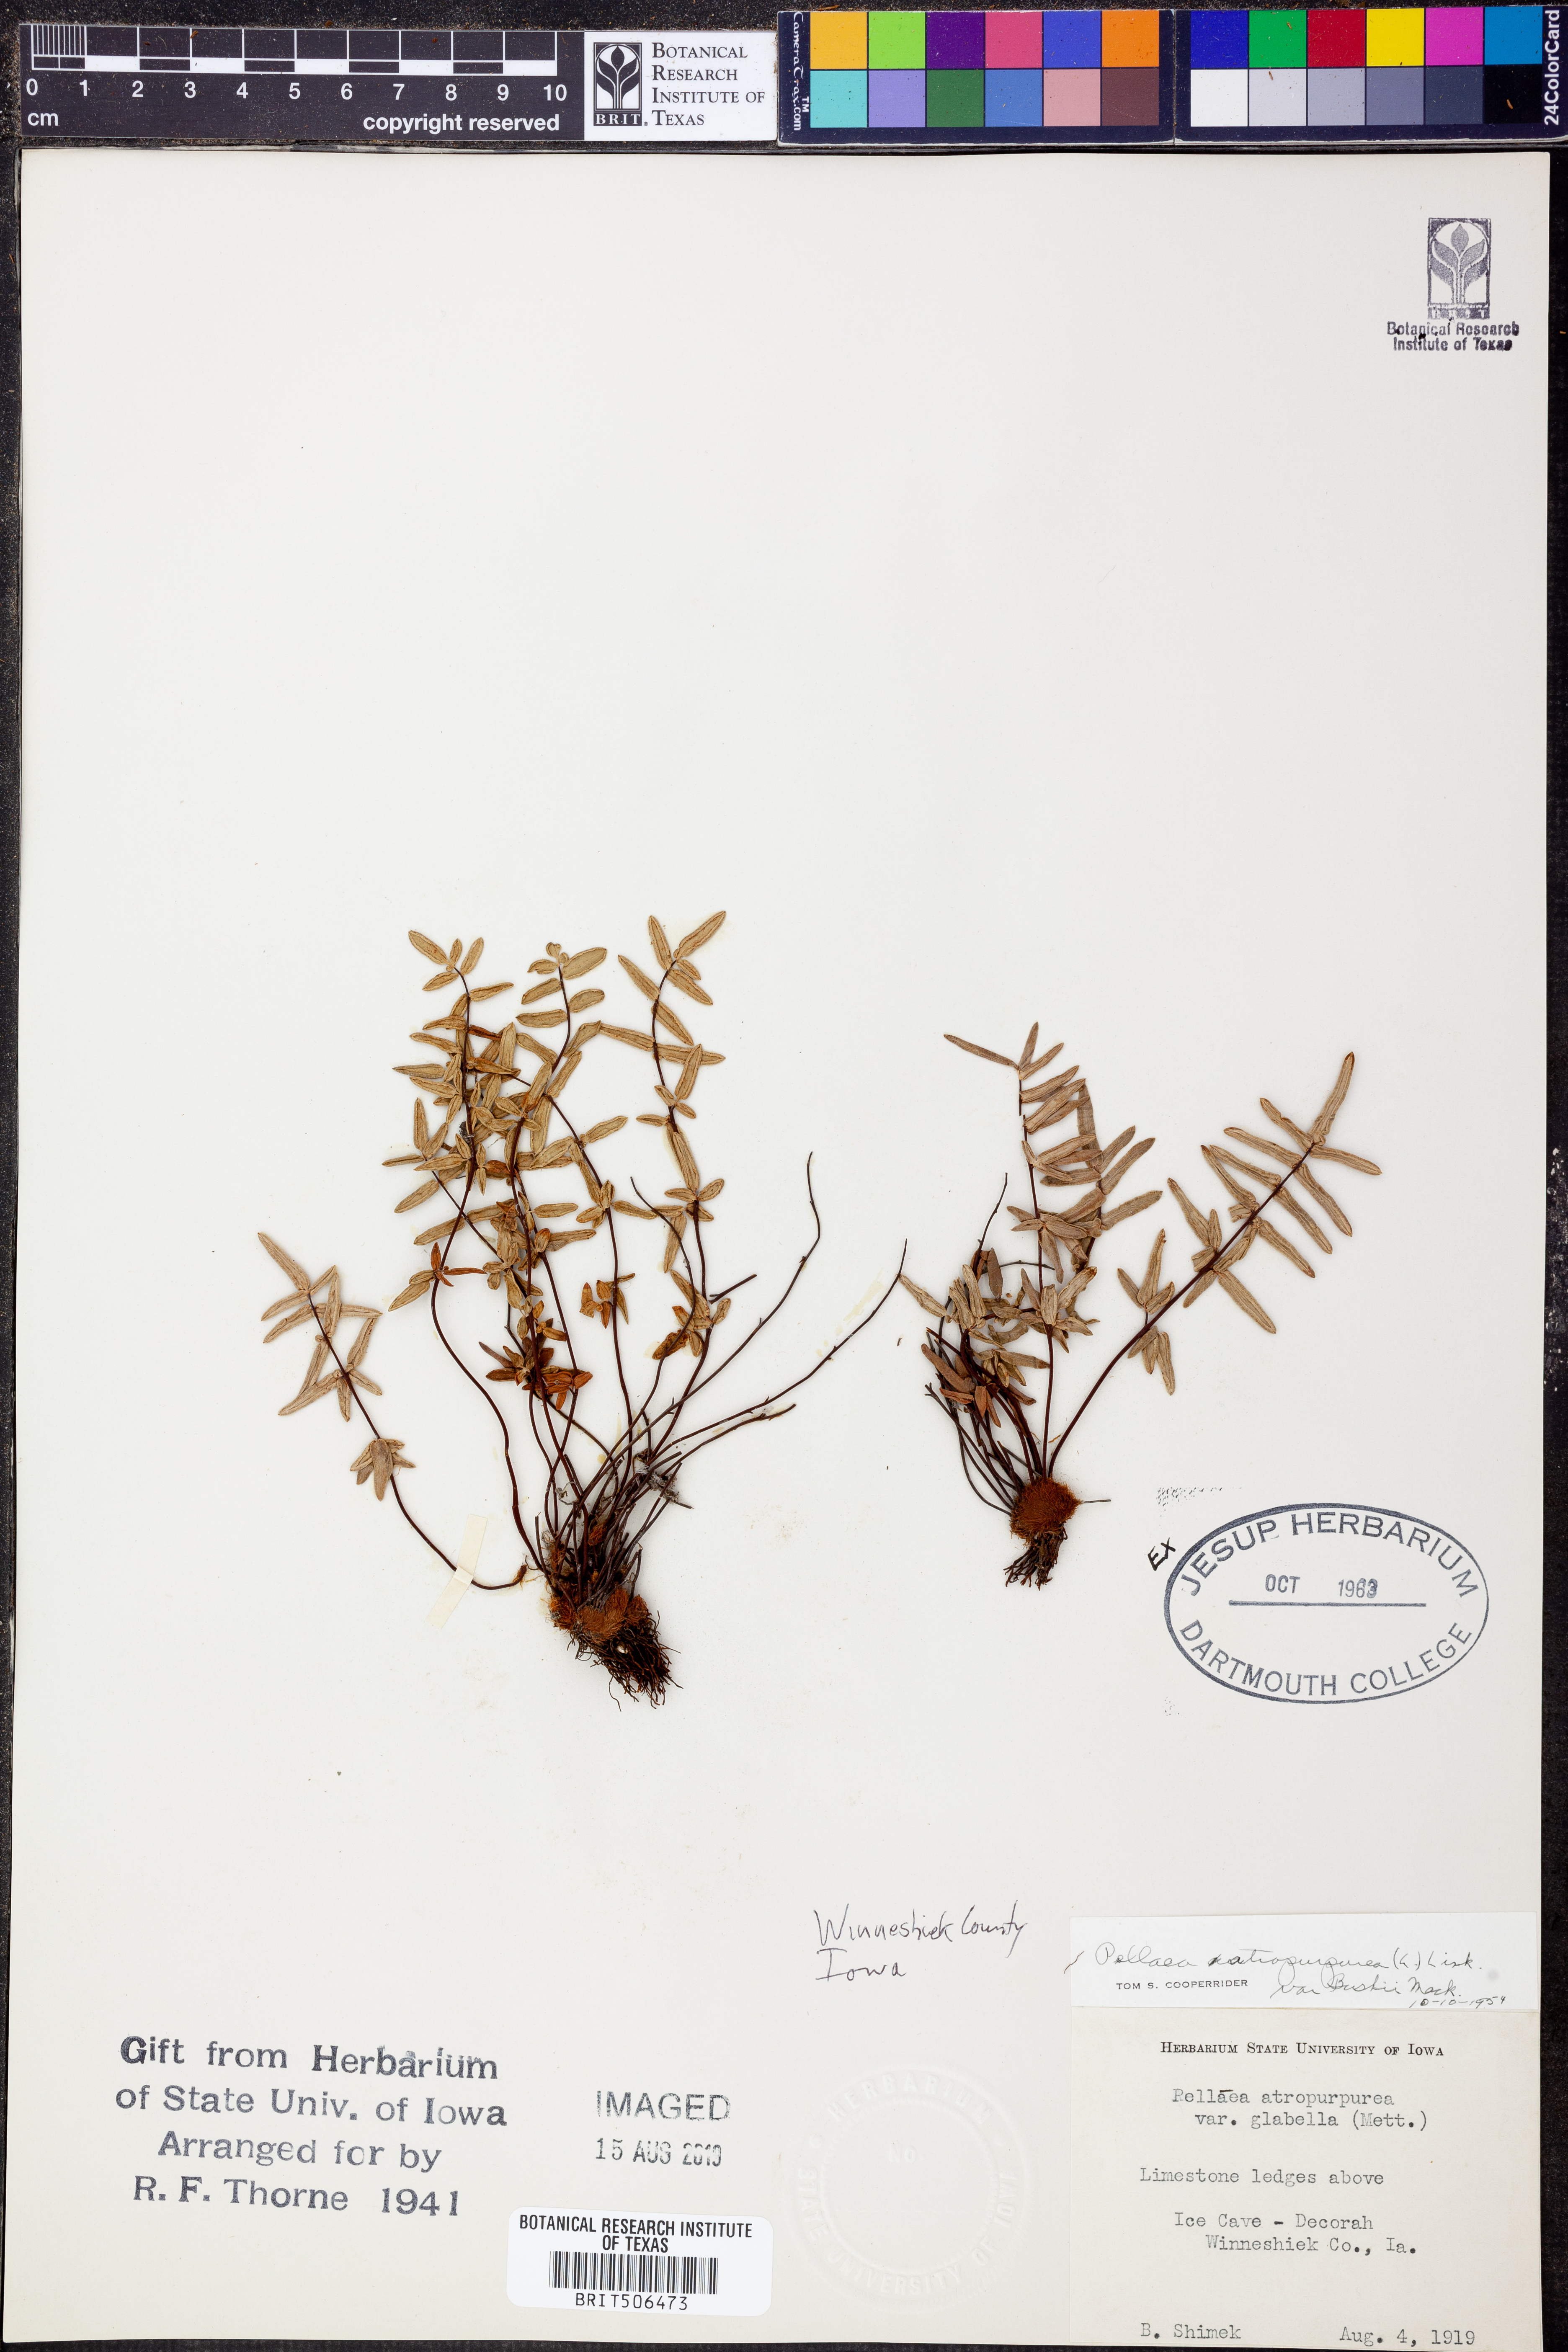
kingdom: Plantae
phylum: Tracheophyta
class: Polypodiopsida
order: Polypodiales
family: Pteridaceae
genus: Pellaea
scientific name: Pellaea atropurpurea
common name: Hairy cliffbrake
